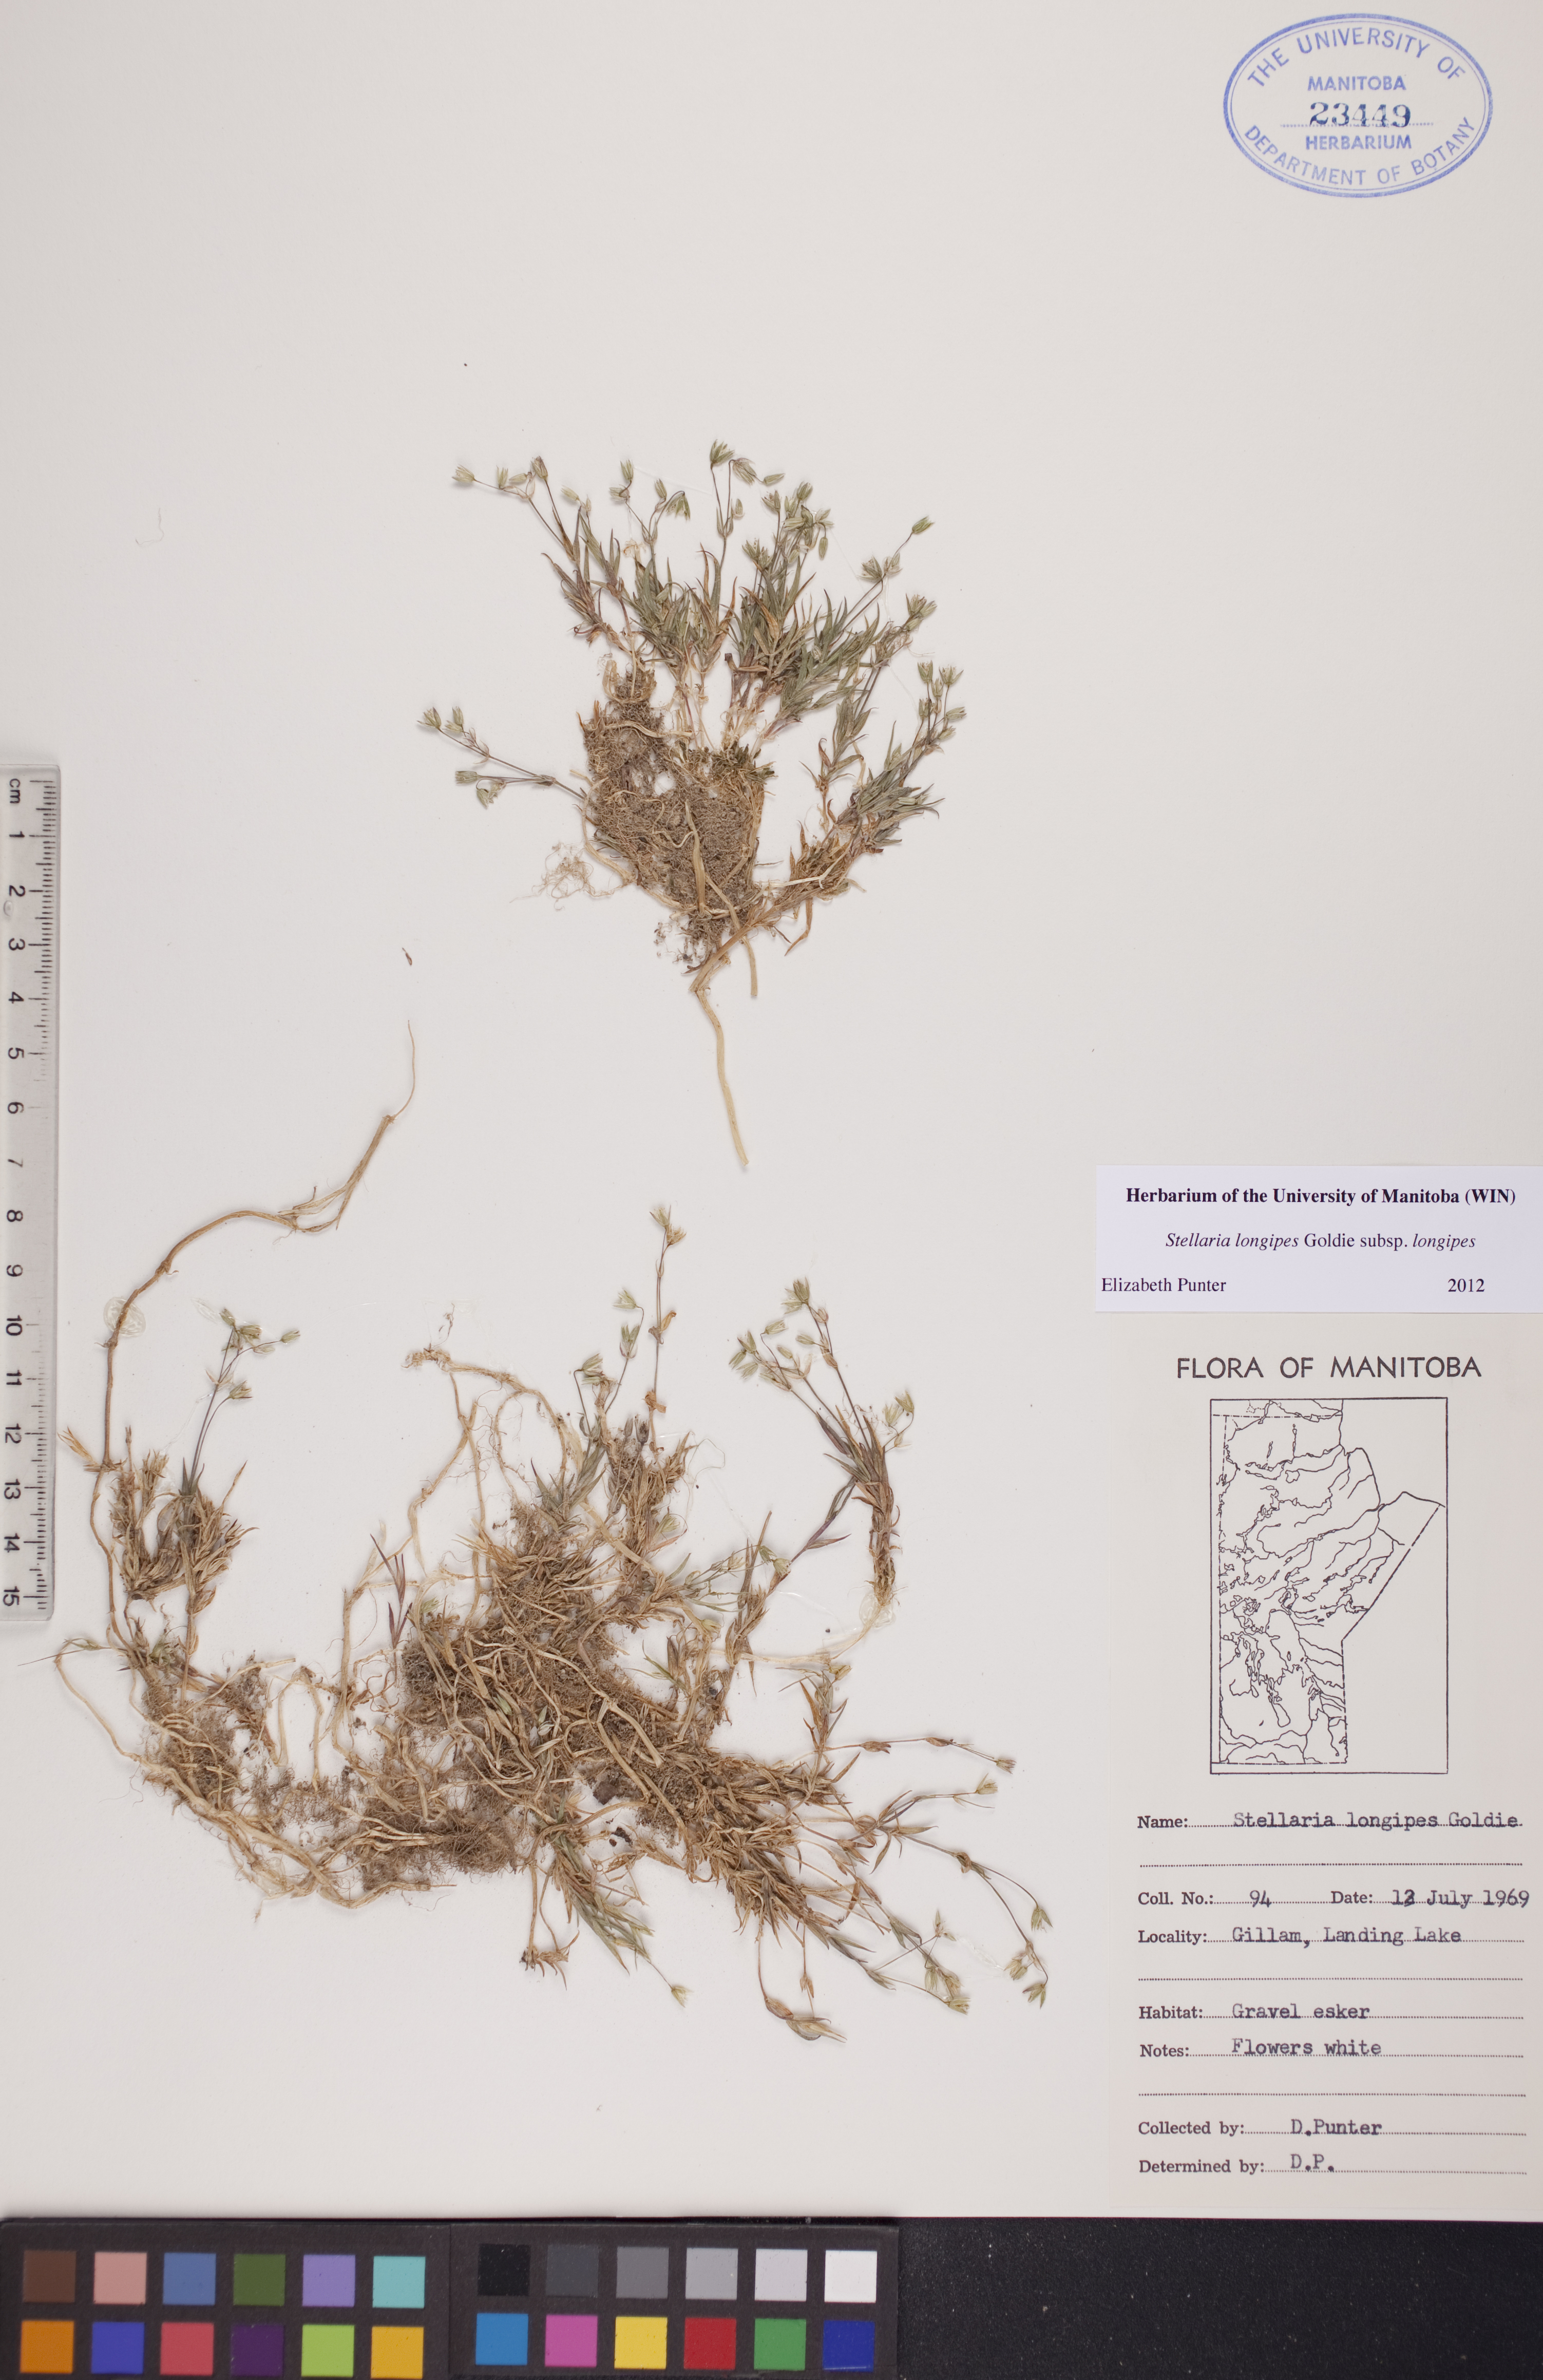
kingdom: Plantae
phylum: Tracheophyta
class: Magnoliopsida
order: Caryophyllales
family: Caryophyllaceae
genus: Stellaria
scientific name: Stellaria longipes
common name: Goldie's starwort
